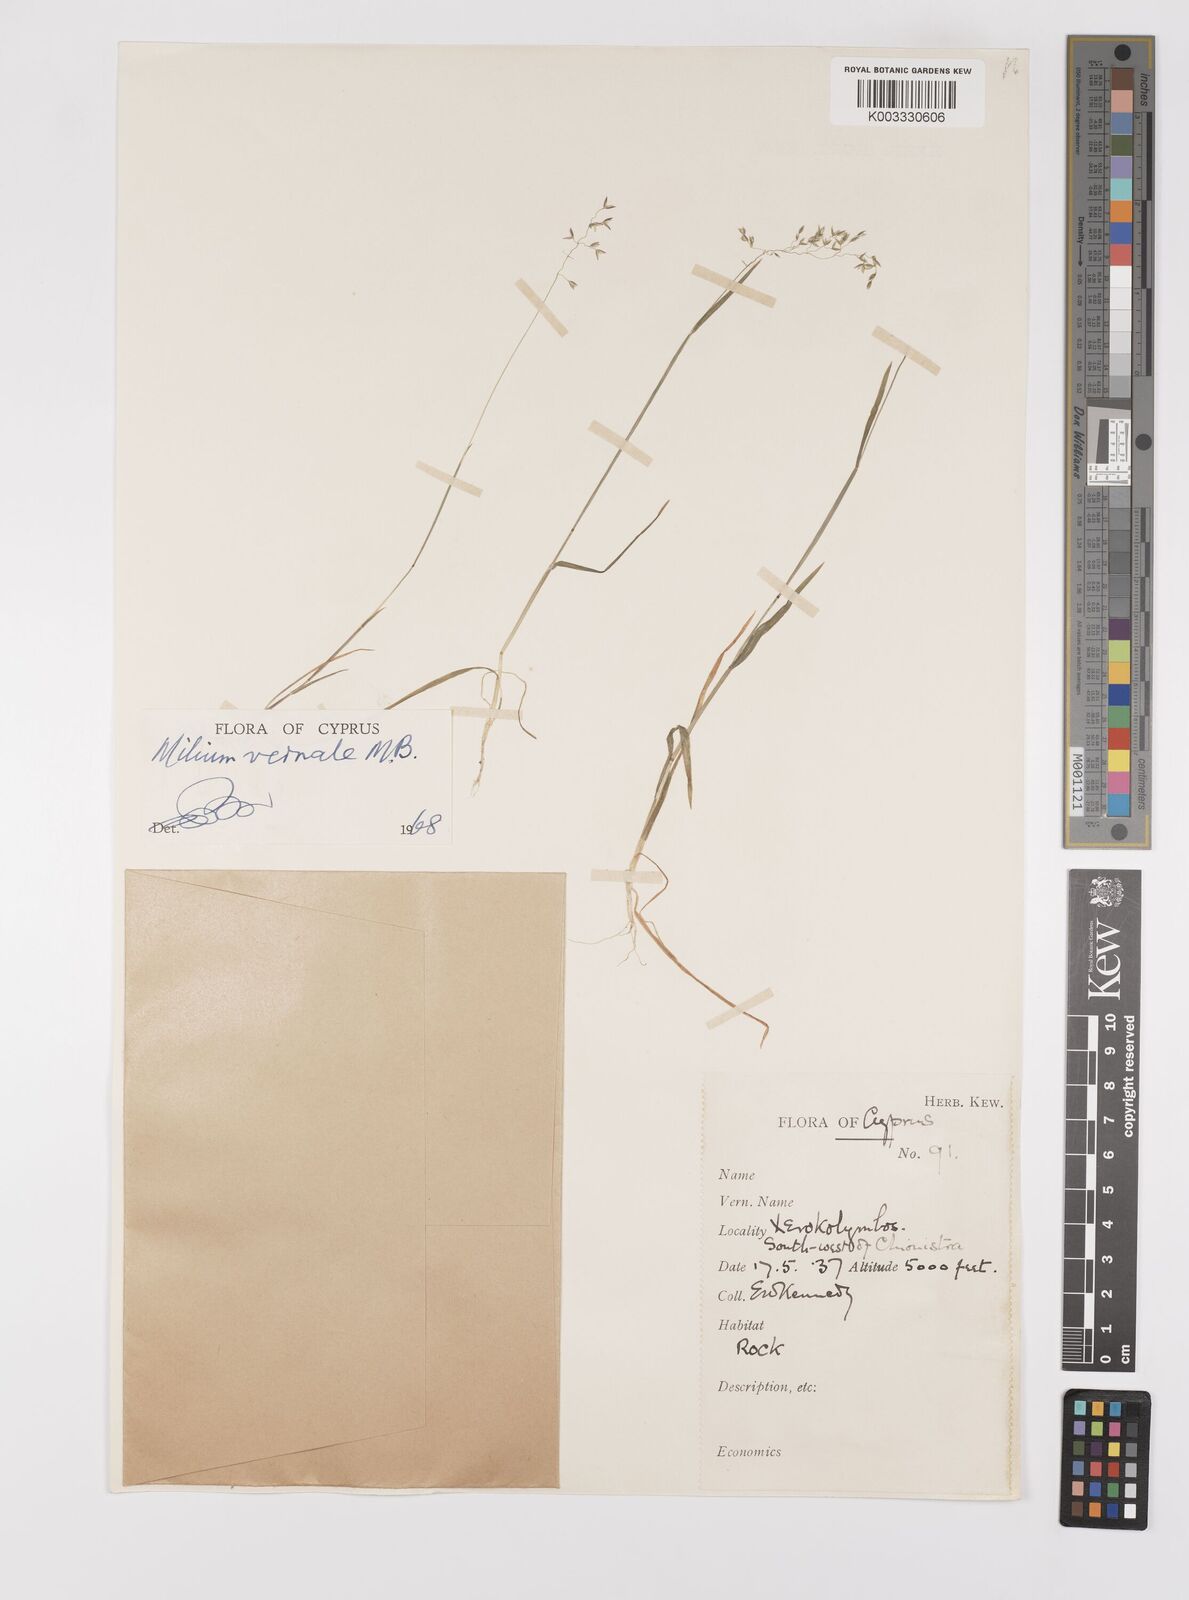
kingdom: Plantae
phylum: Tracheophyta
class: Liliopsida
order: Poales
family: Poaceae
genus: Milium
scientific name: Milium vernale
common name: Early millet
